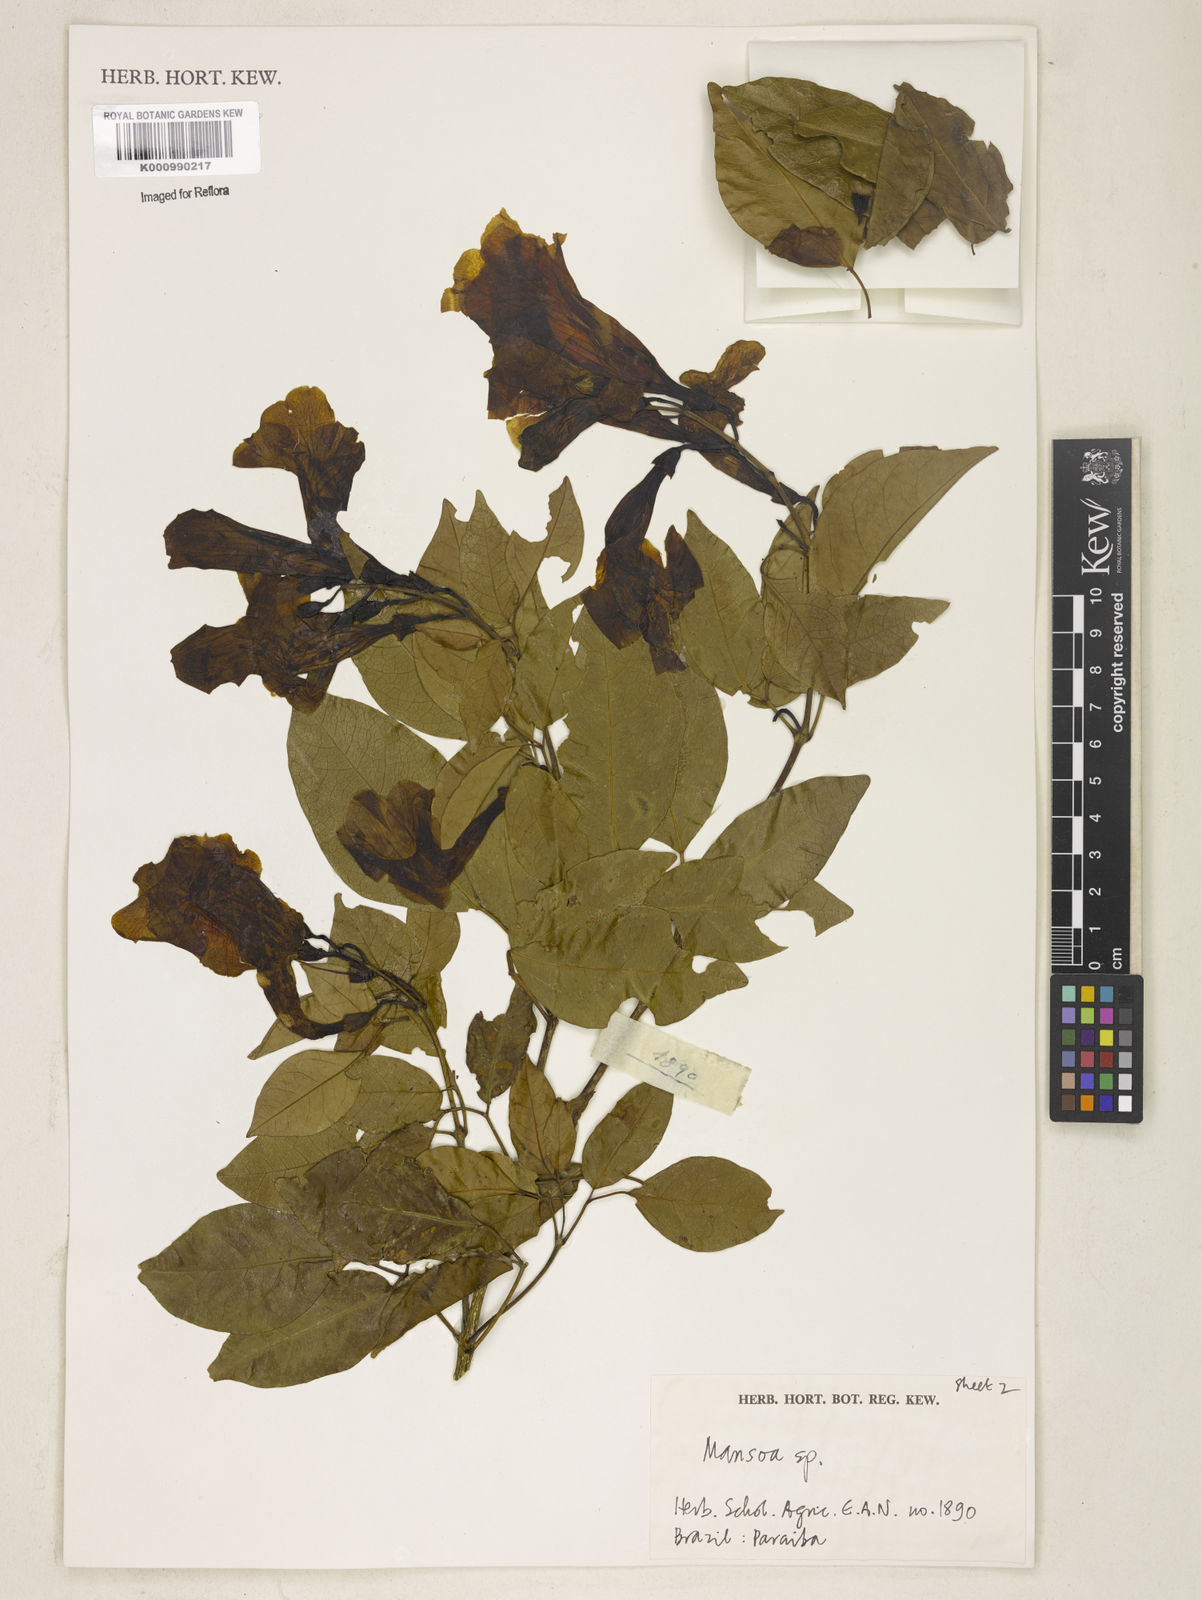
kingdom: Plantae
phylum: Tracheophyta
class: Magnoliopsida
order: Lamiales
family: Bignoniaceae
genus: Mansoa
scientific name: Mansoa
